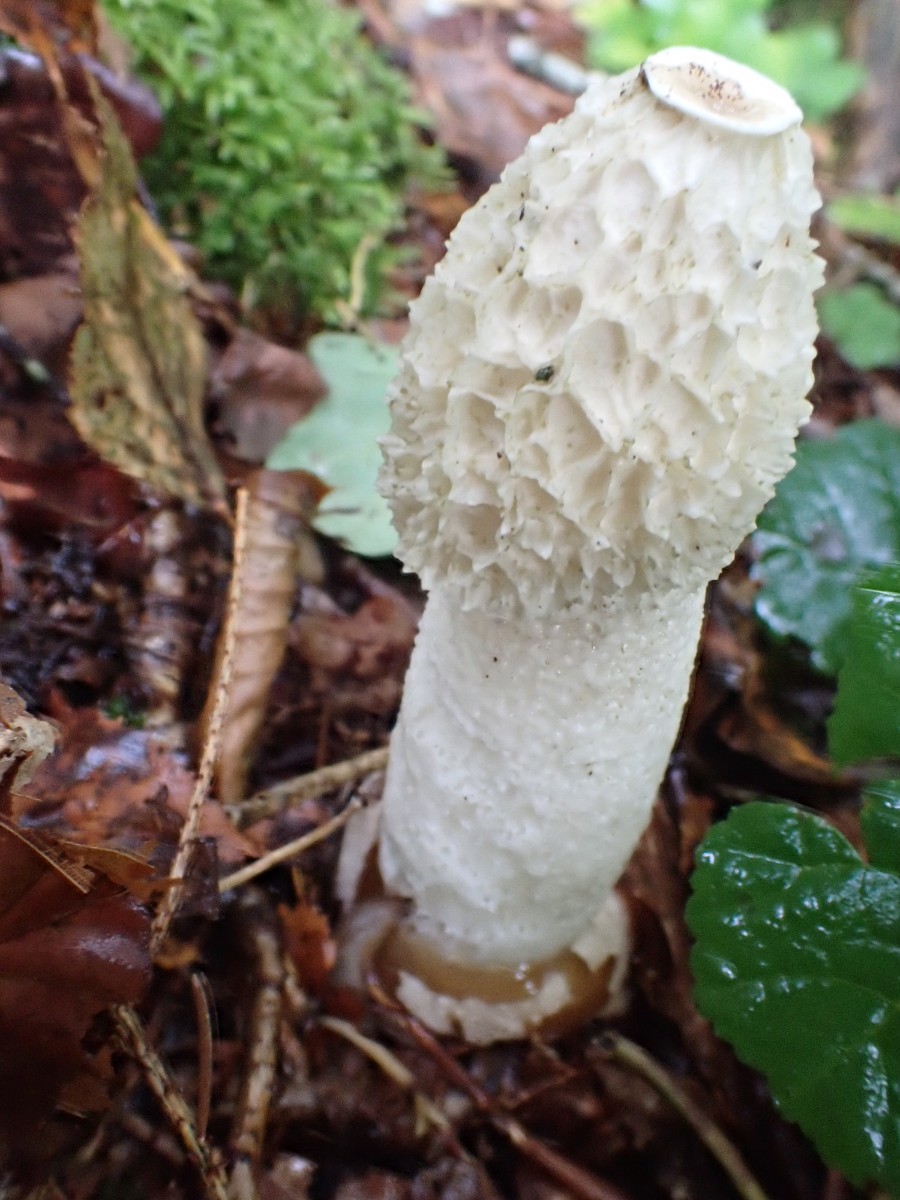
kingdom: Fungi
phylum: Basidiomycota
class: Agaricomycetes
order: Phallales
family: Phallaceae
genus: Phallus
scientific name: Phallus impudicus
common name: almindelig stinksvamp
